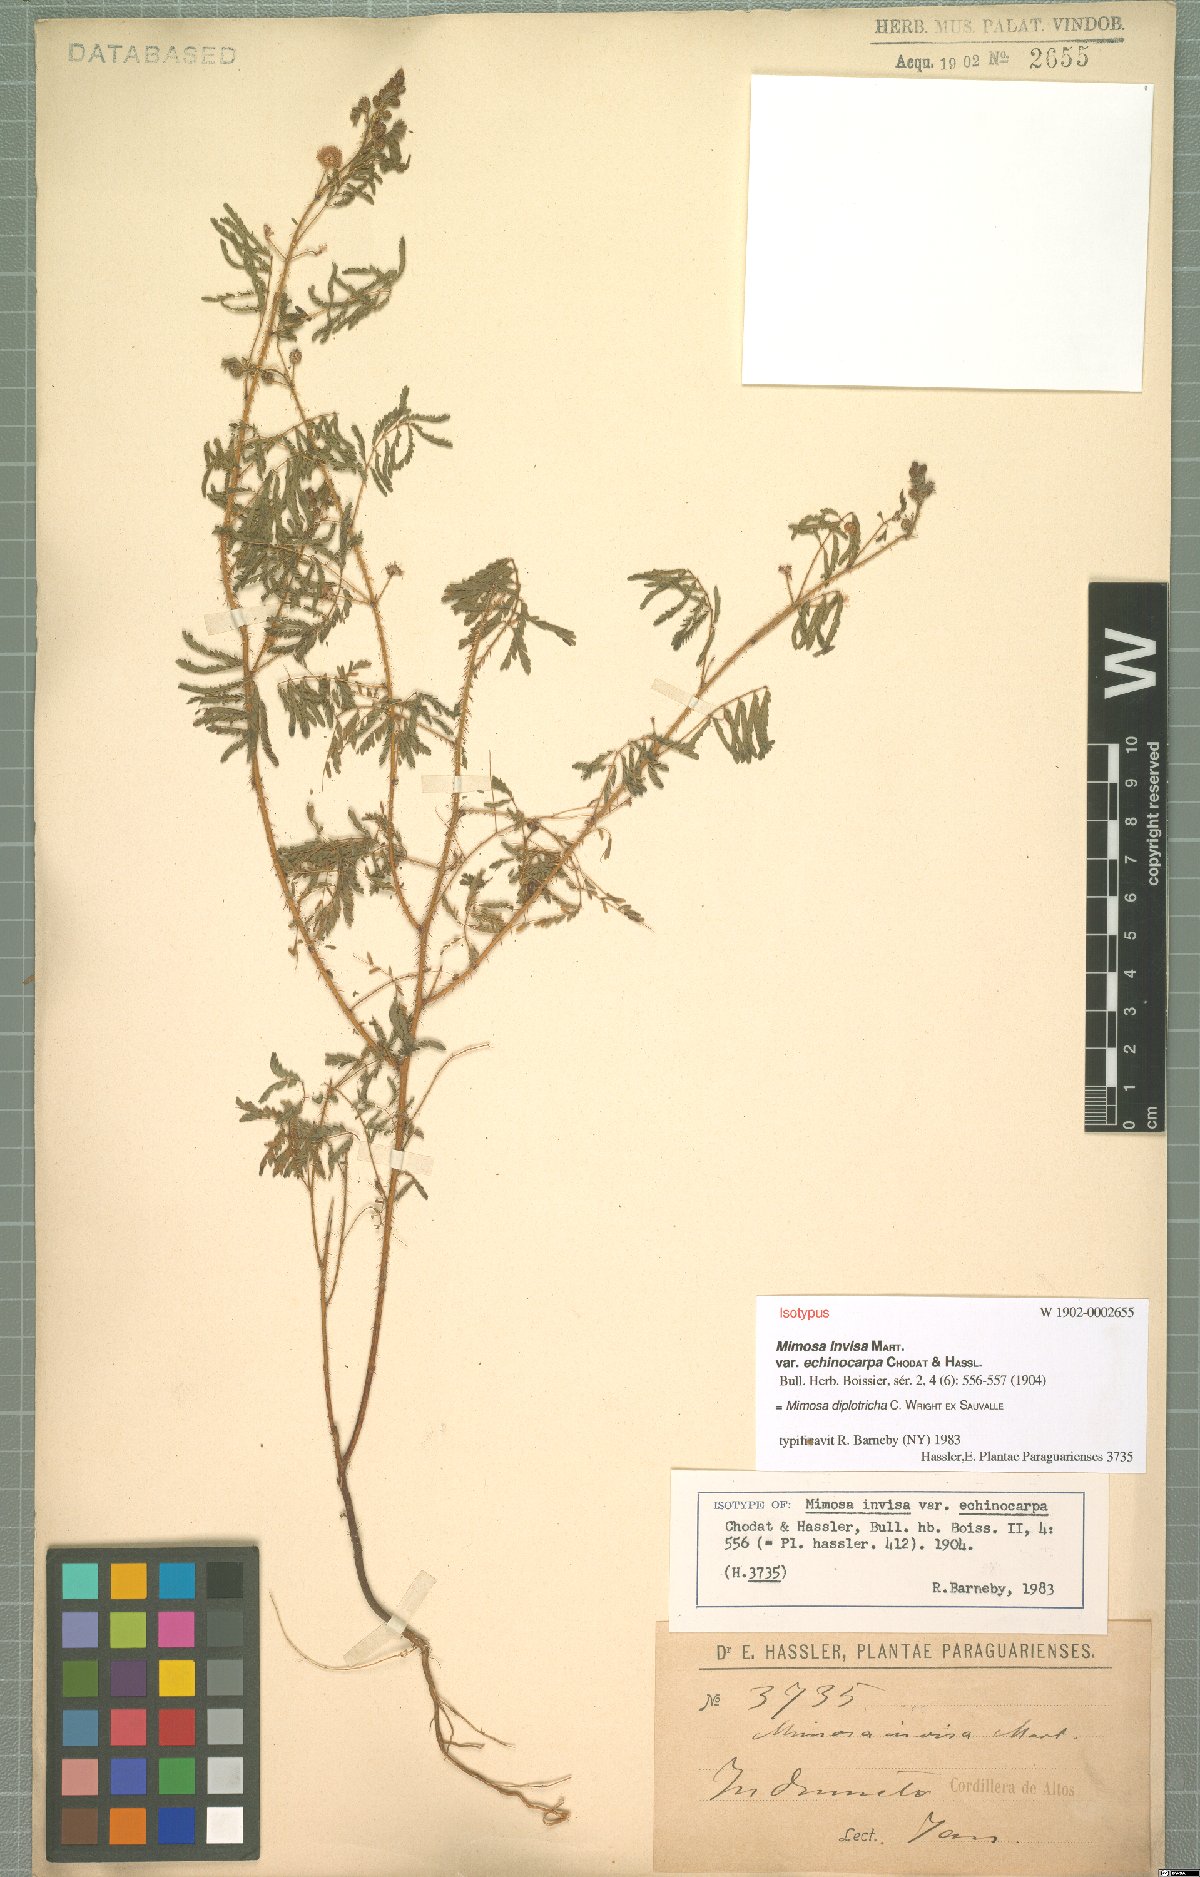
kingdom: Plantae
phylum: Tracheophyta
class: Magnoliopsida
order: Fabales
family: Fabaceae
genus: Mimosa
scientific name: Mimosa diplotricha
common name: Giant sensitive-plant
